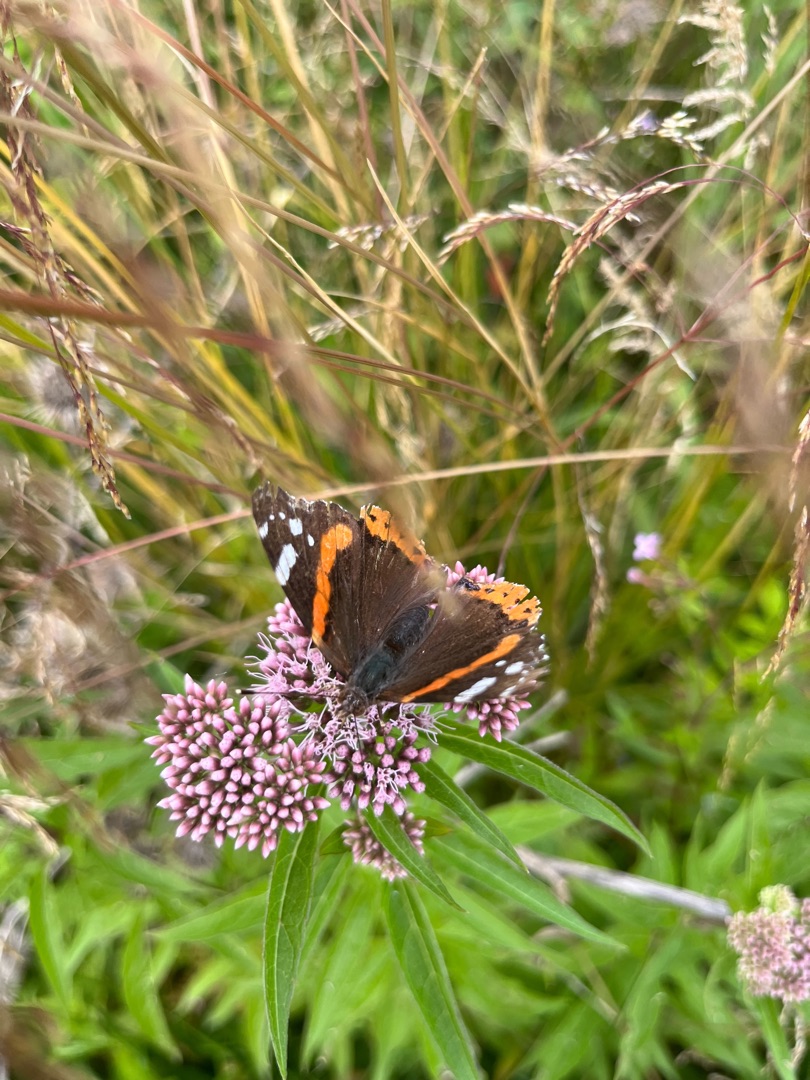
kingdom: Animalia
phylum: Arthropoda
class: Insecta
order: Lepidoptera
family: Nymphalidae
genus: Vanessa
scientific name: Vanessa atalanta
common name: Admiral
